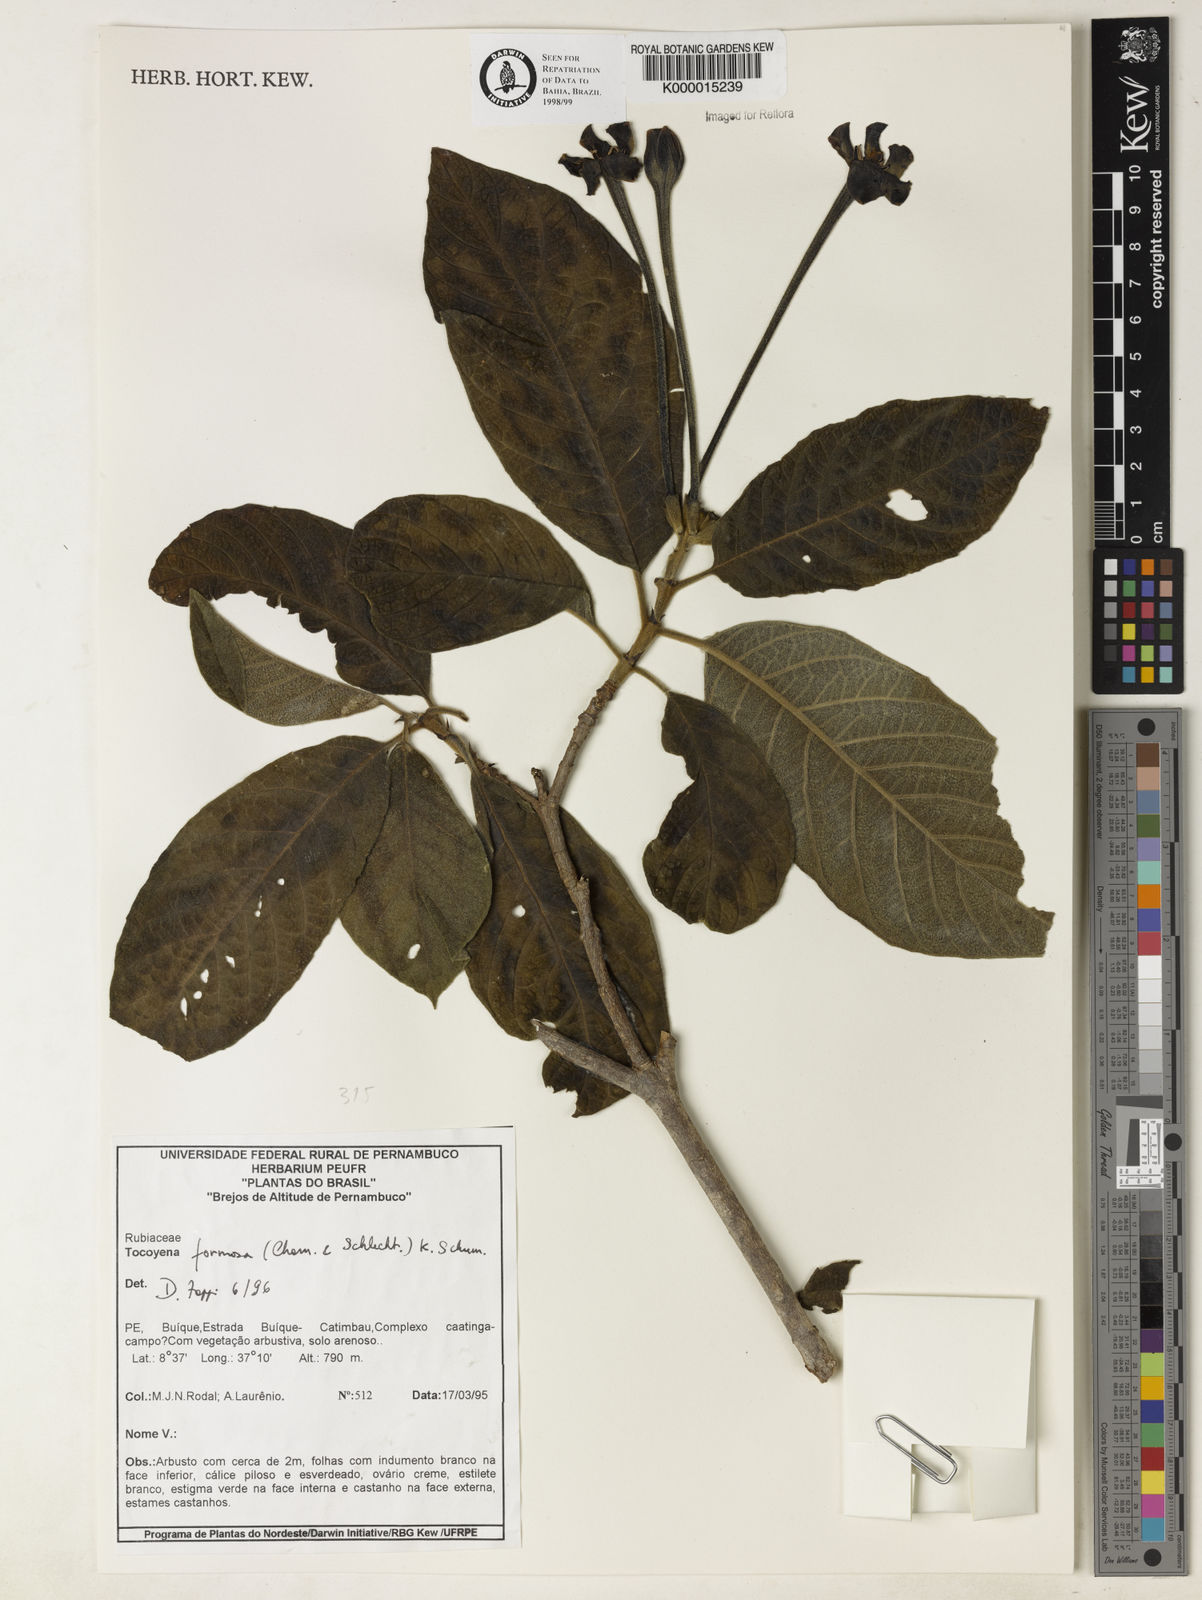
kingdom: Plantae
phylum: Tracheophyta
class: Magnoliopsida
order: Gentianales
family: Rubiaceae
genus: Tocoyena
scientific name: Tocoyena formosa
